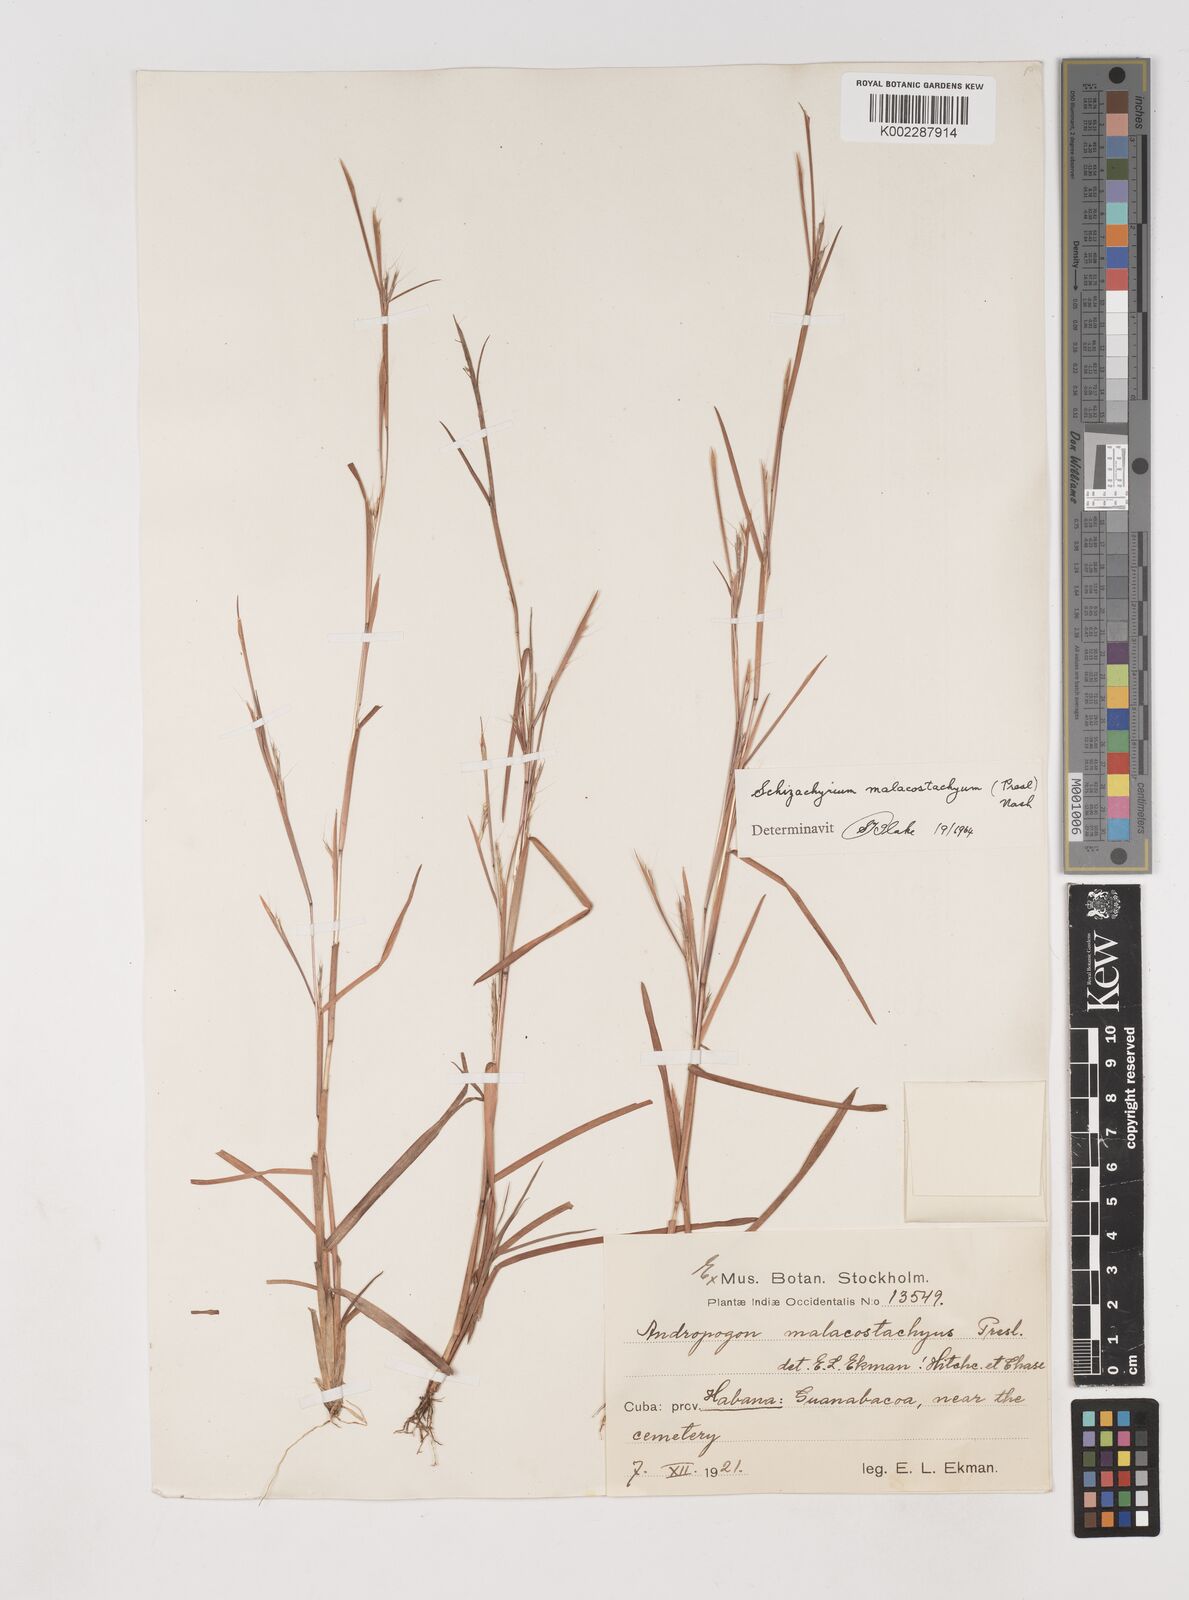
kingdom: Plantae
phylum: Tracheophyta
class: Liliopsida
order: Poales
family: Poaceae
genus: Schizachyrium
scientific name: Schizachyrium malacostachyum
